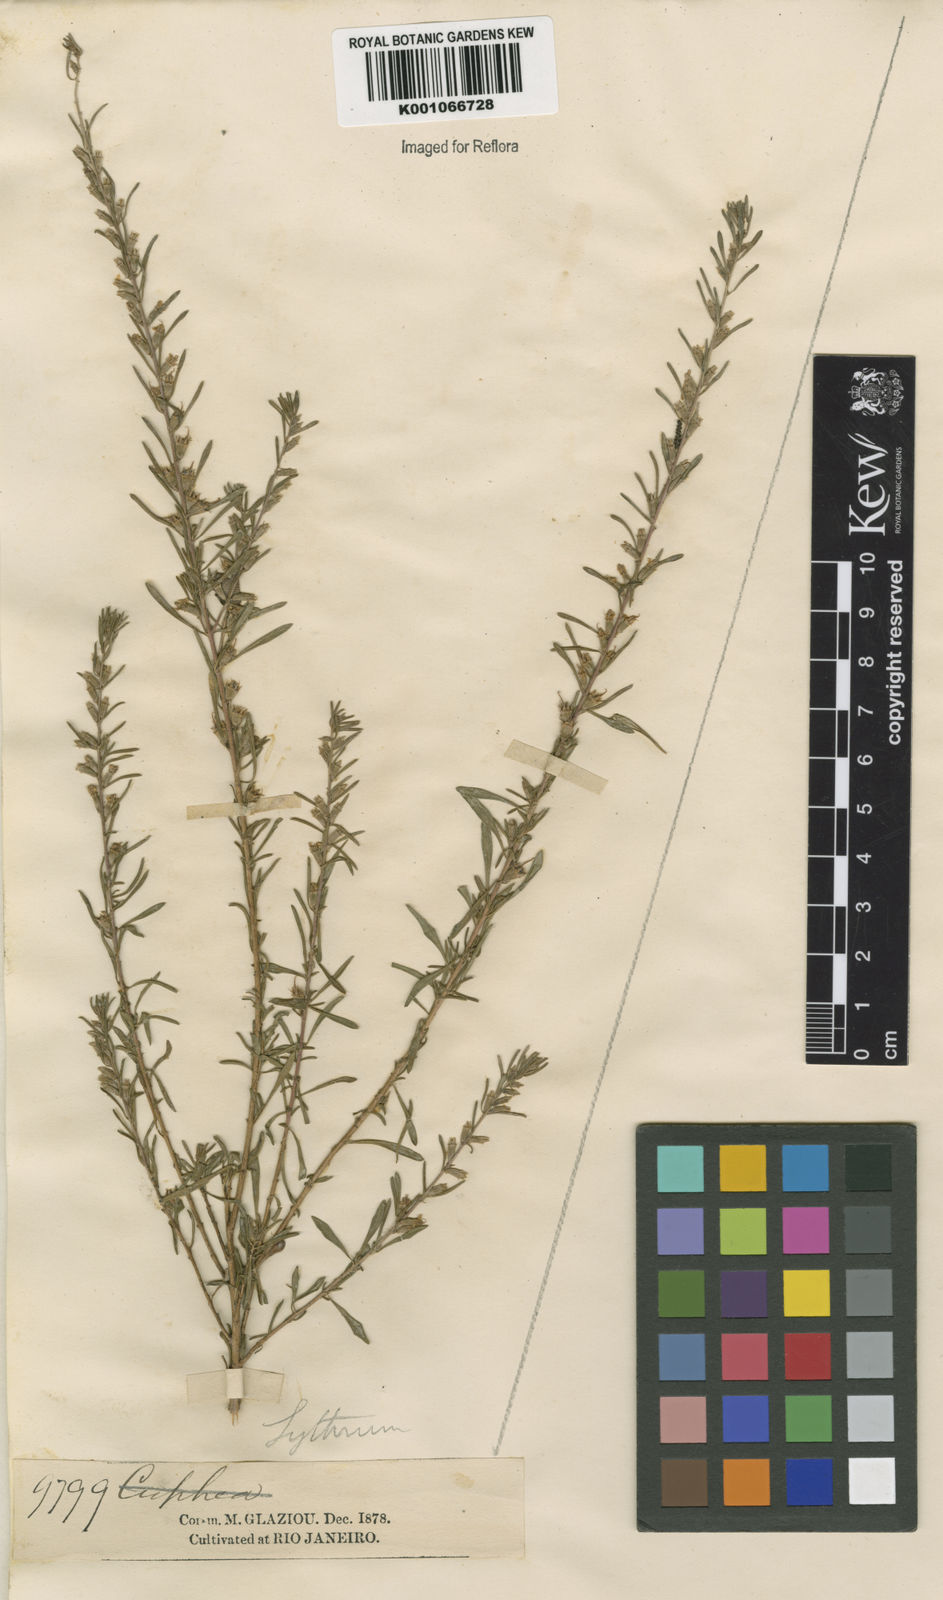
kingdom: Plantae
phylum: Tracheophyta
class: Magnoliopsida
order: Myrtales
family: Lythraceae
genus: Pleurophora
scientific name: Pleurophora anomala
